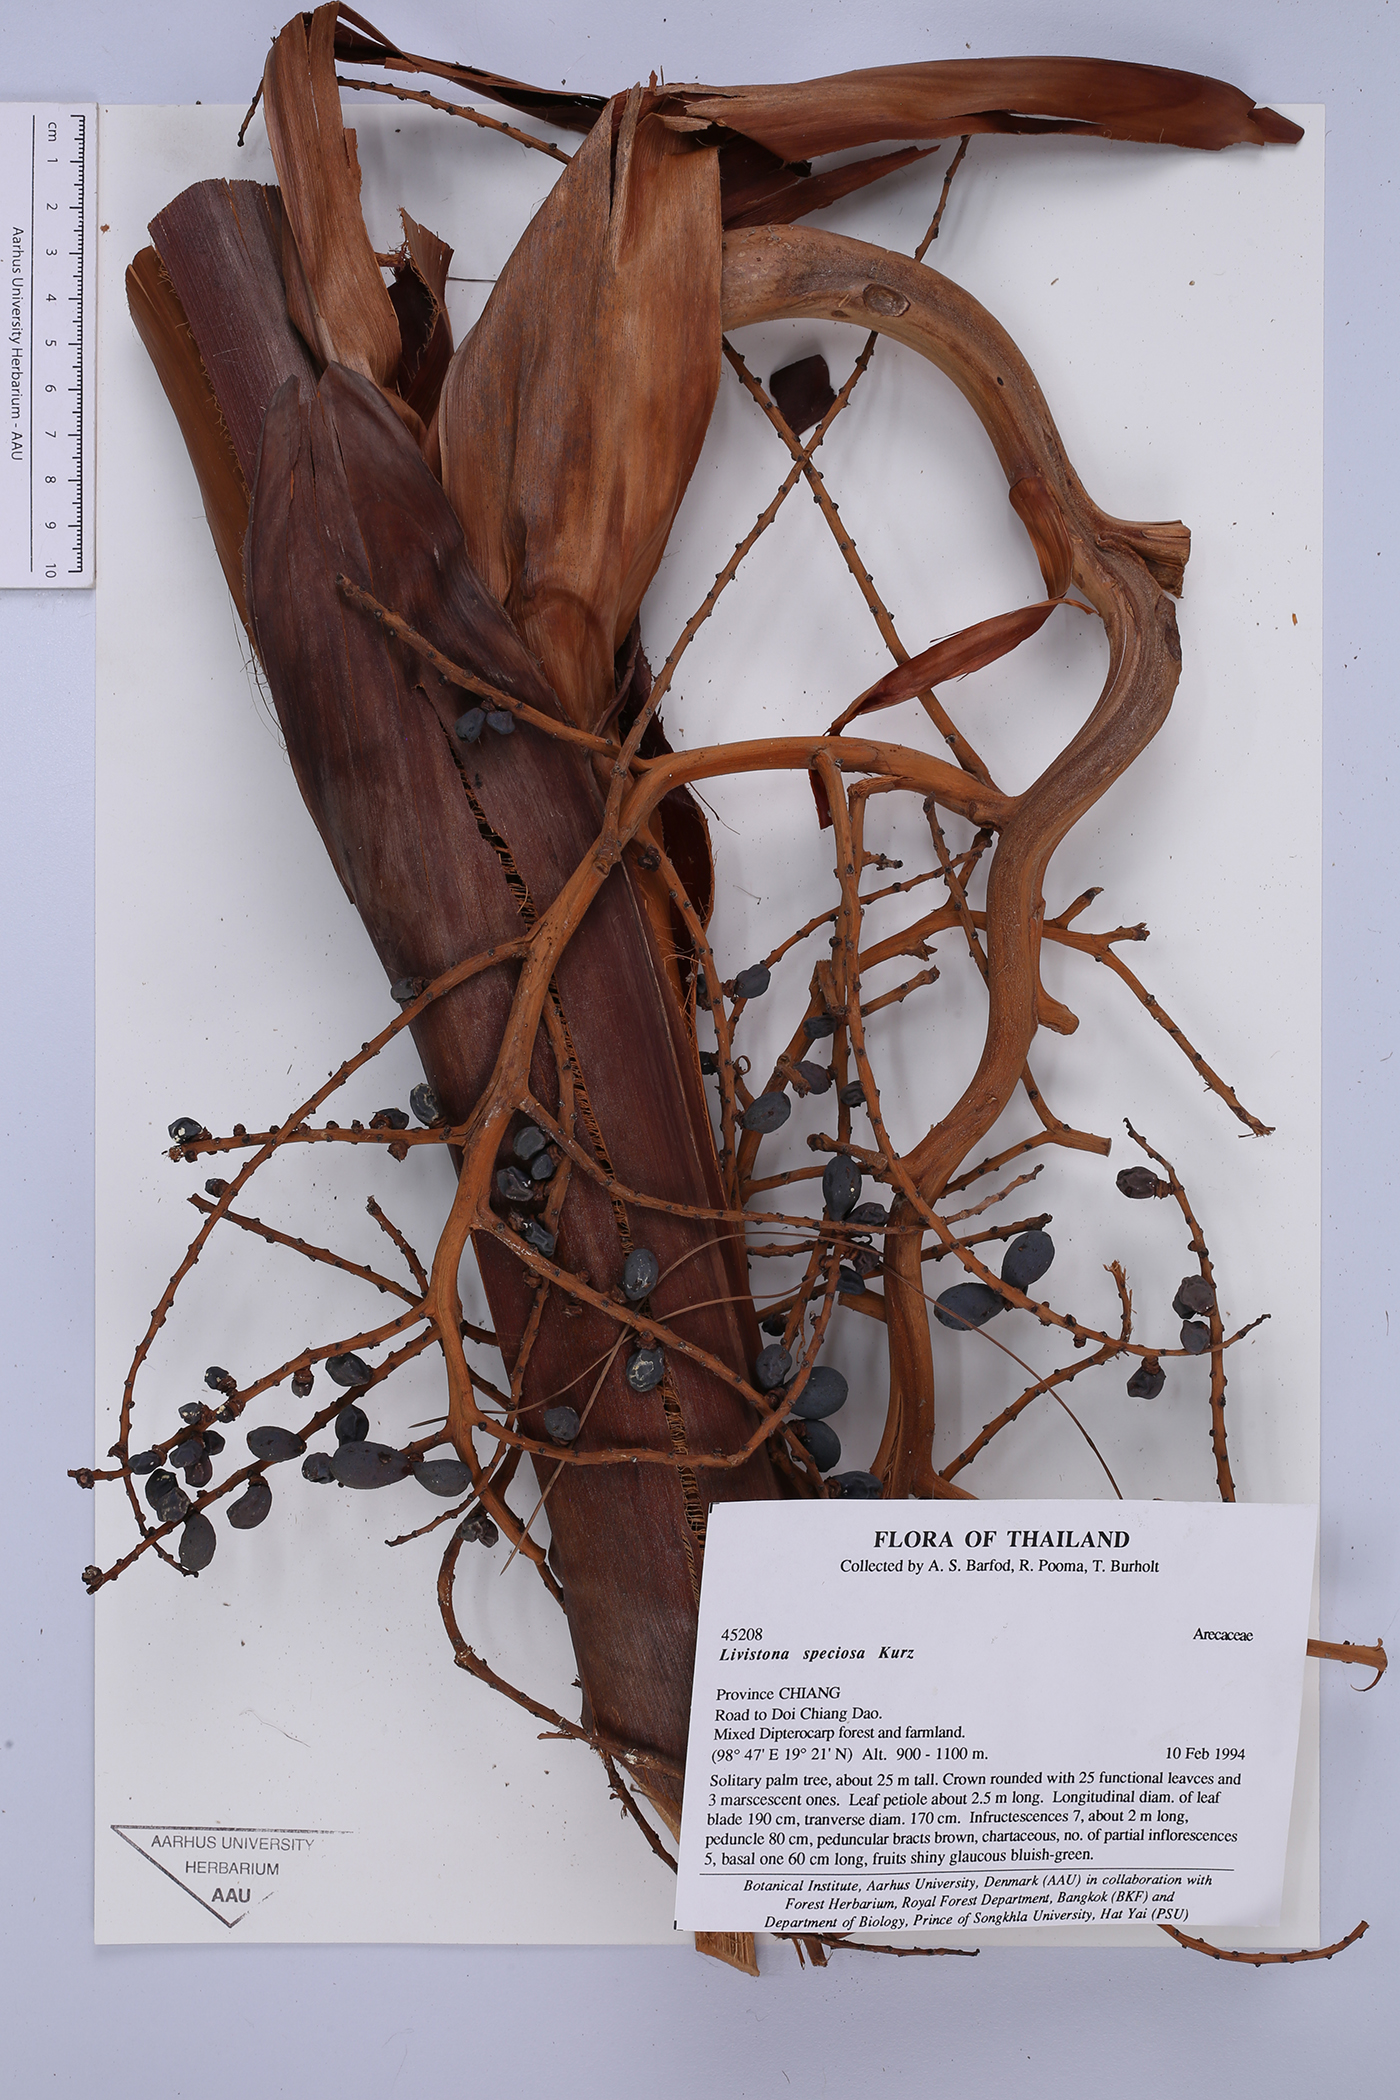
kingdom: Plantae
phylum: Tracheophyta
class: Liliopsida
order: Arecales
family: Arecaceae
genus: Livistona
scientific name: Livistona speciosa
